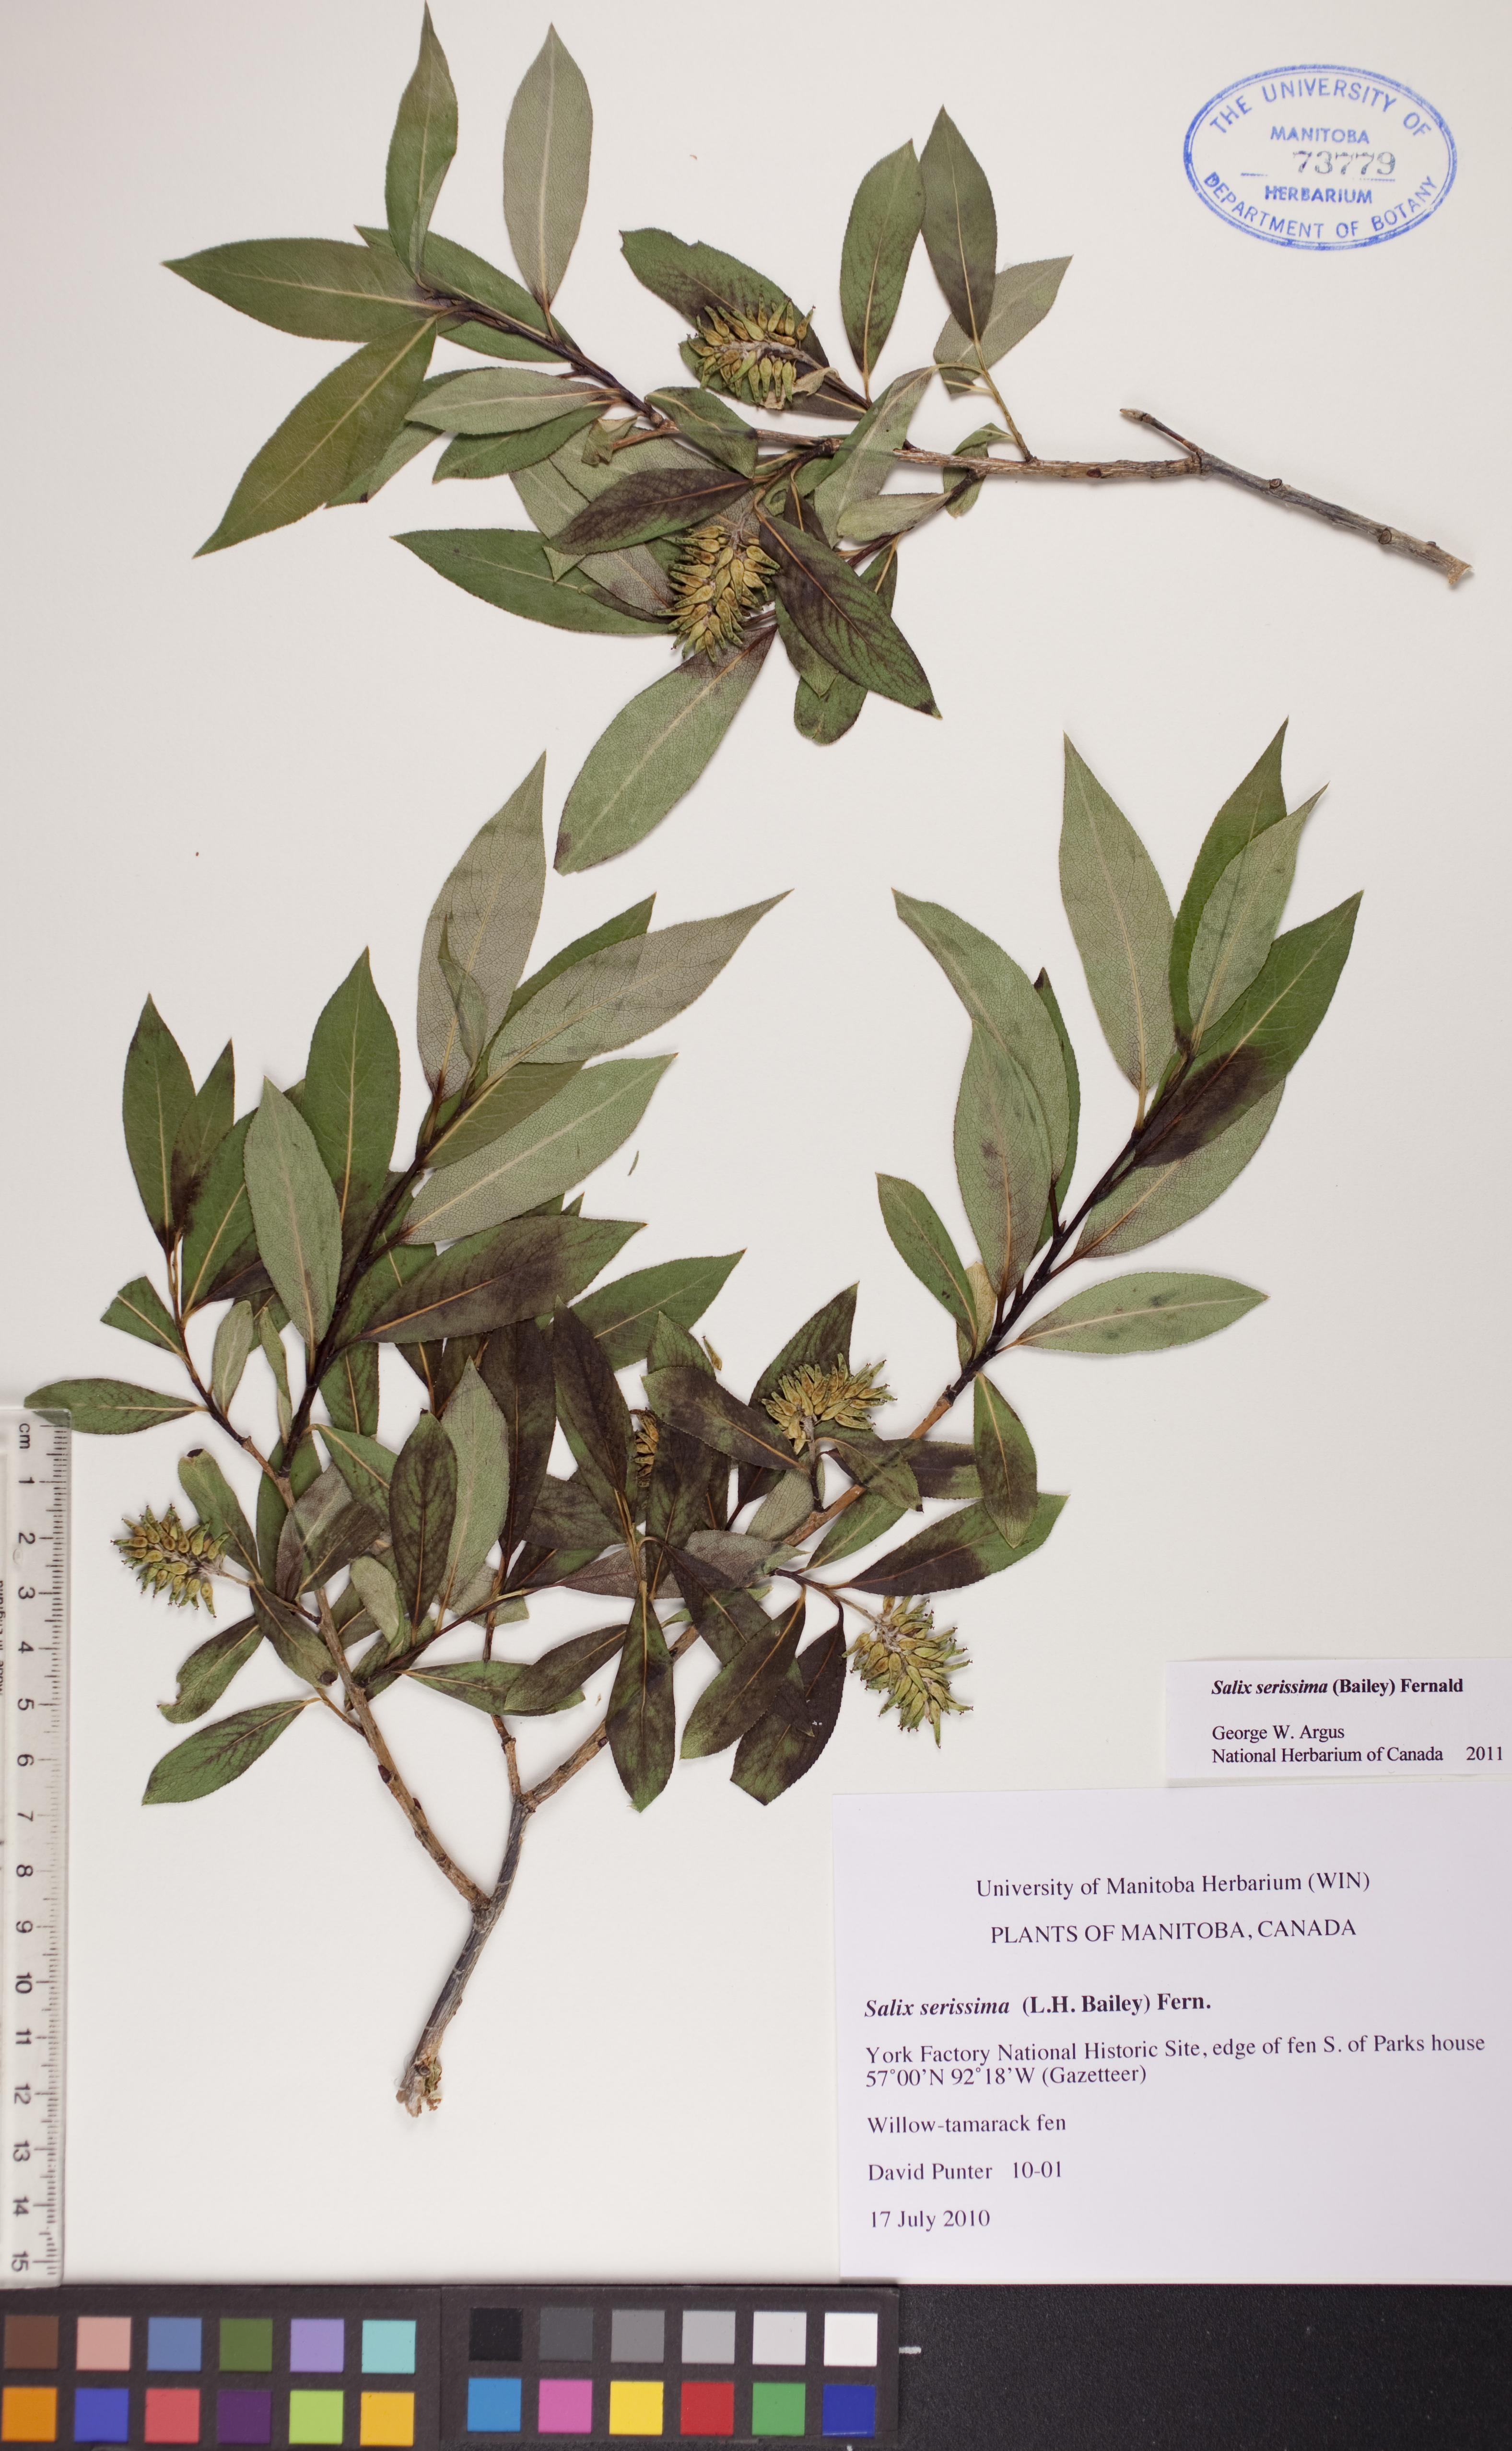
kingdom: Plantae
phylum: Tracheophyta
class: Magnoliopsida
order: Malpighiales
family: Salicaceae
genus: Salix
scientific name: Salix serissima
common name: Autumn willow
